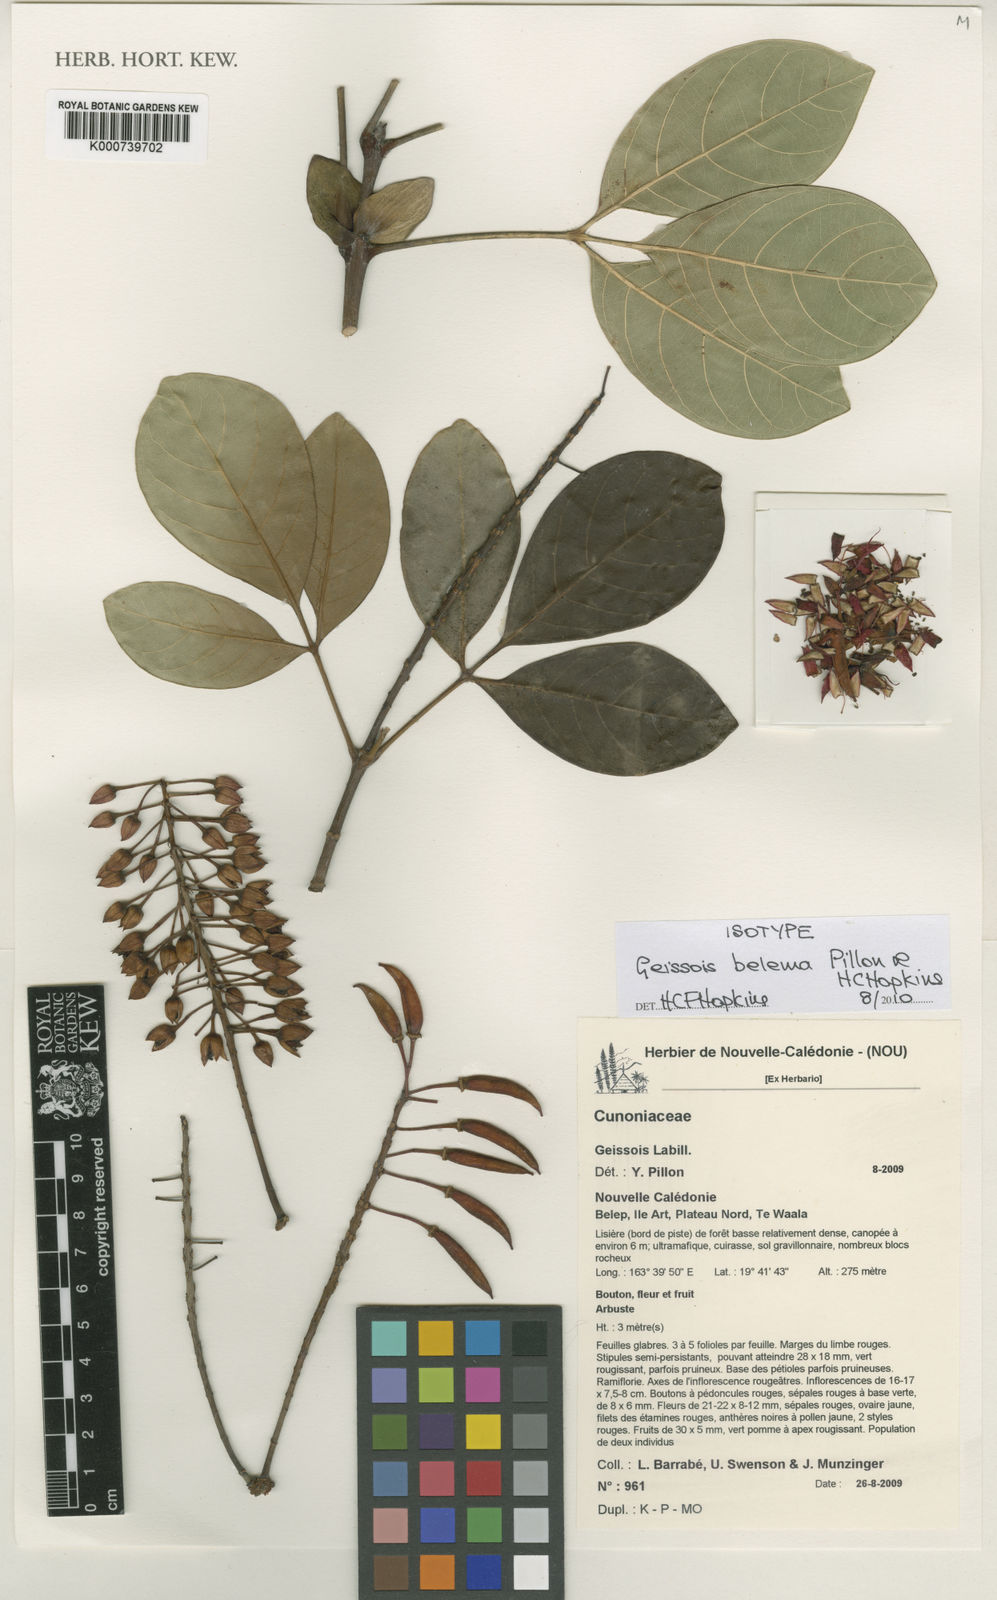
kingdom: Plantae
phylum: Tracheophyta
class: Magnoliopsida
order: Oxalidales
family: Cunoniaceae
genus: Geissois
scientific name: Geissois belema
